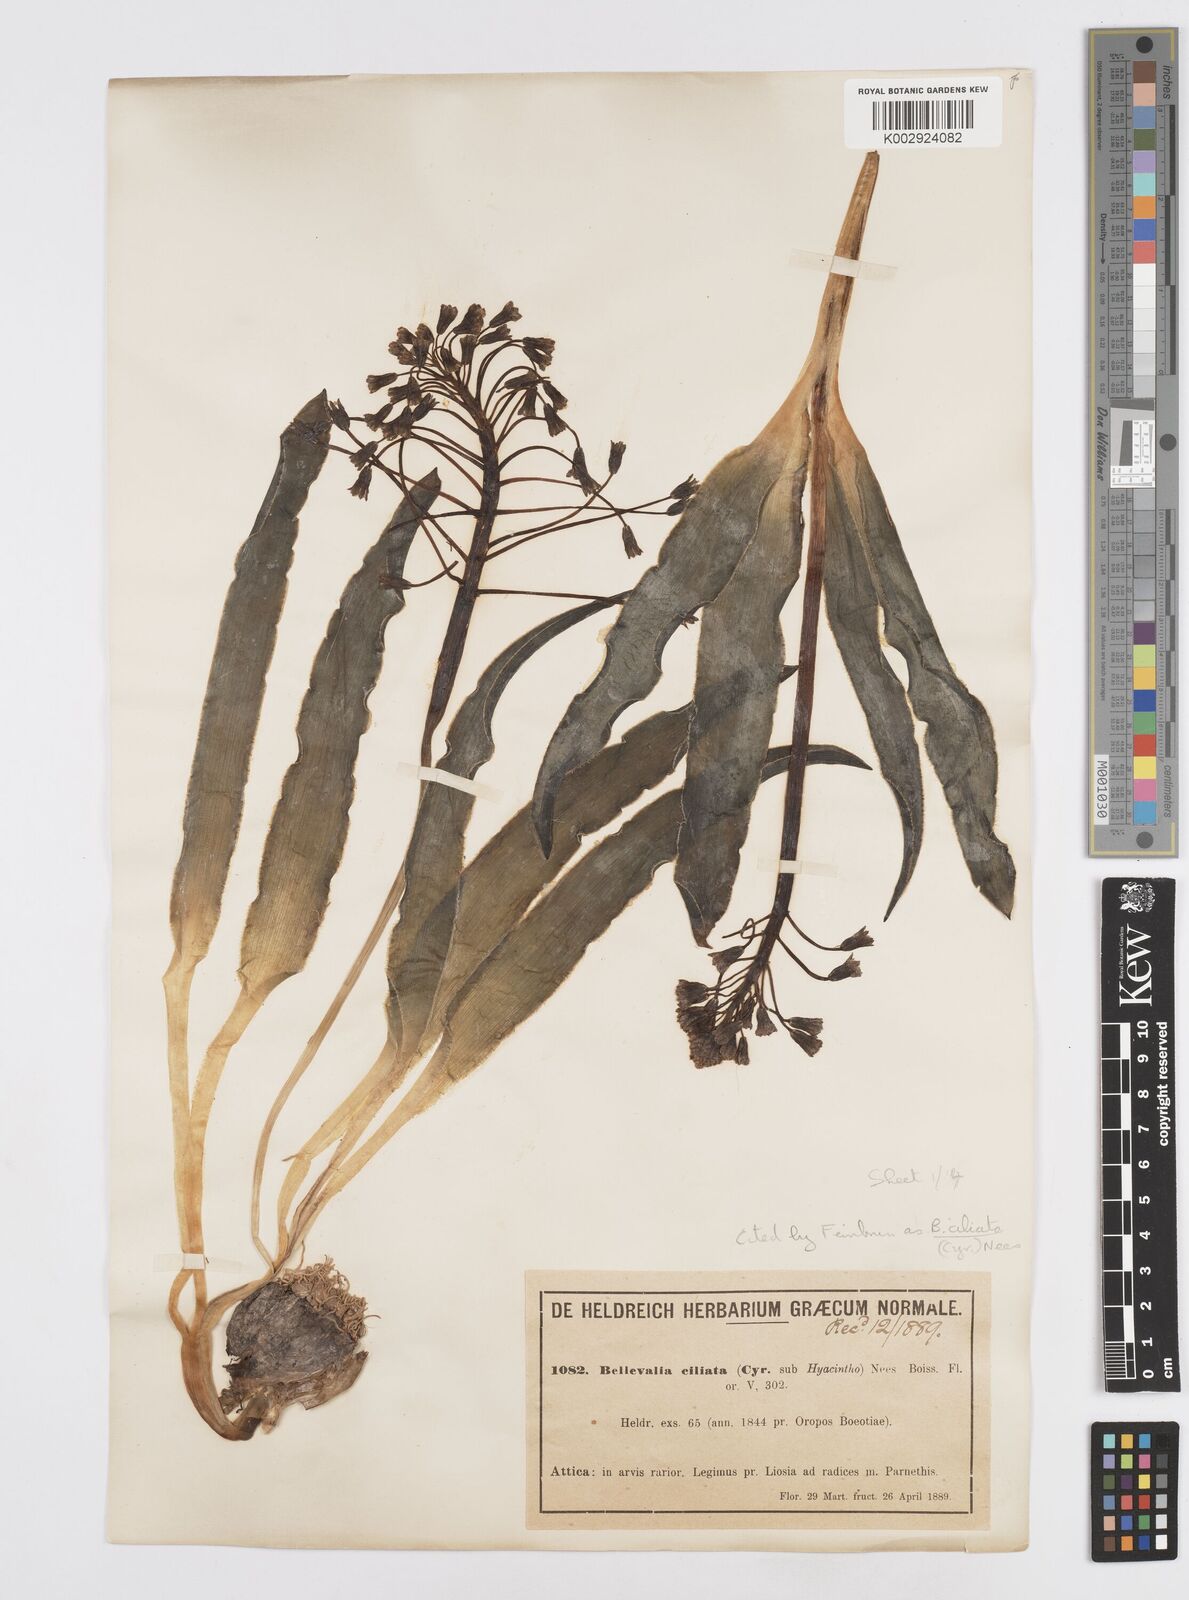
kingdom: Plantae
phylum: Tracheophyta
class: Liliopsida
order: Asparagales
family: Asparagaceae
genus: Bellevalia
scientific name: Bellevalia ciliata
